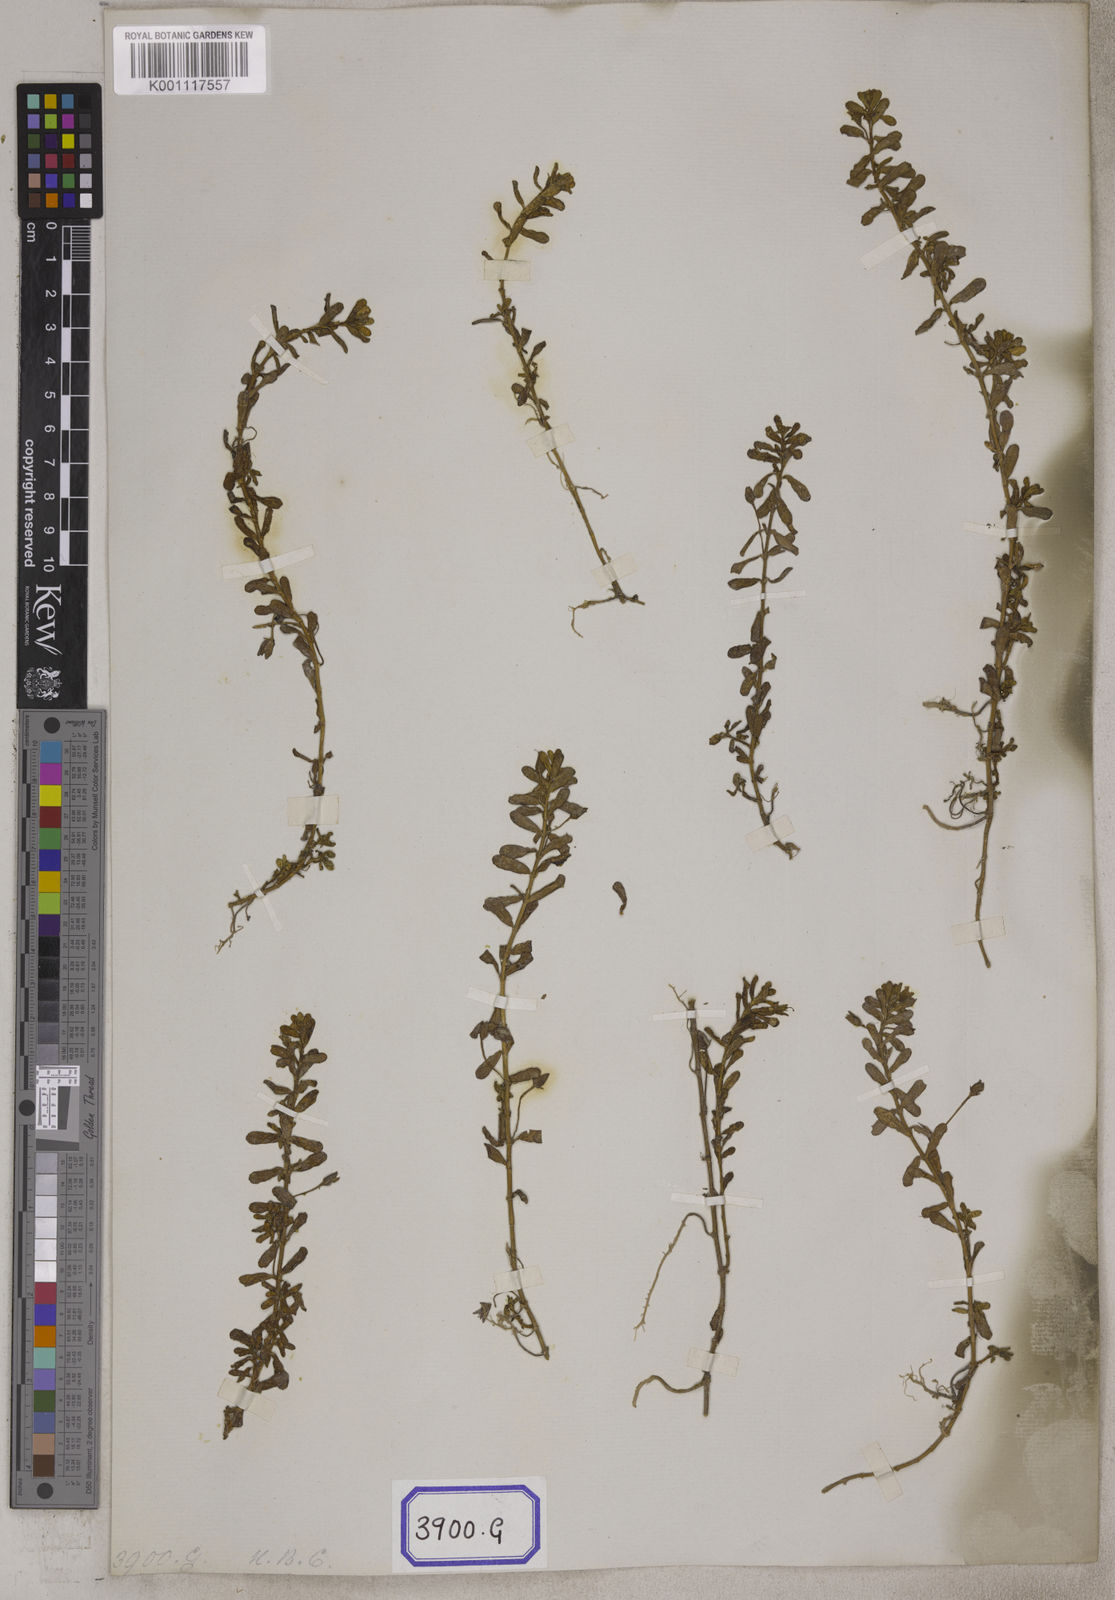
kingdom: Plantae
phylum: Tracheophyta
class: Magnoliopsida
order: Lamiales
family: Plantaginaceae
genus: Bacopa
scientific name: Bacopa monnieri
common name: Indian-pennywort
